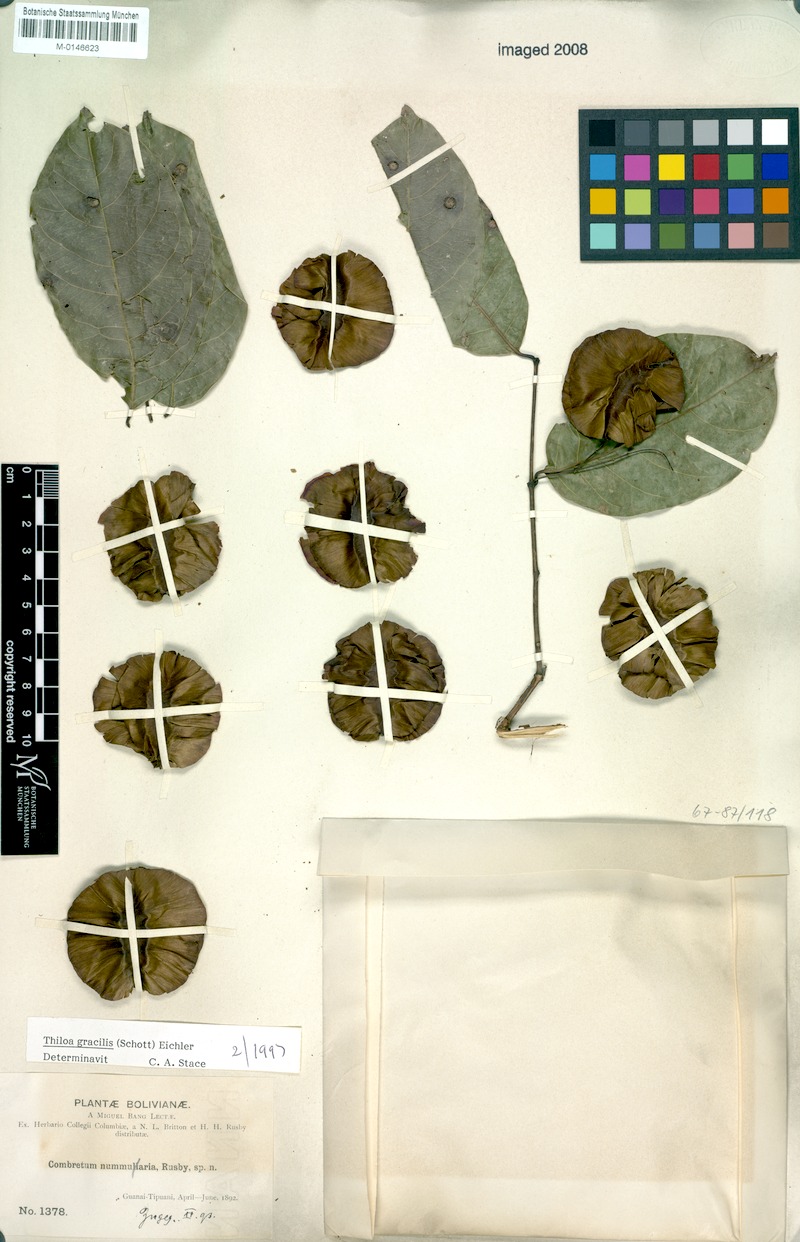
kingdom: Plantae
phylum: Tracheophyta
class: Magnoliopsida
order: Myrtales
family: Combretaceae
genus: Combretum
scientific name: Combretum gracile
